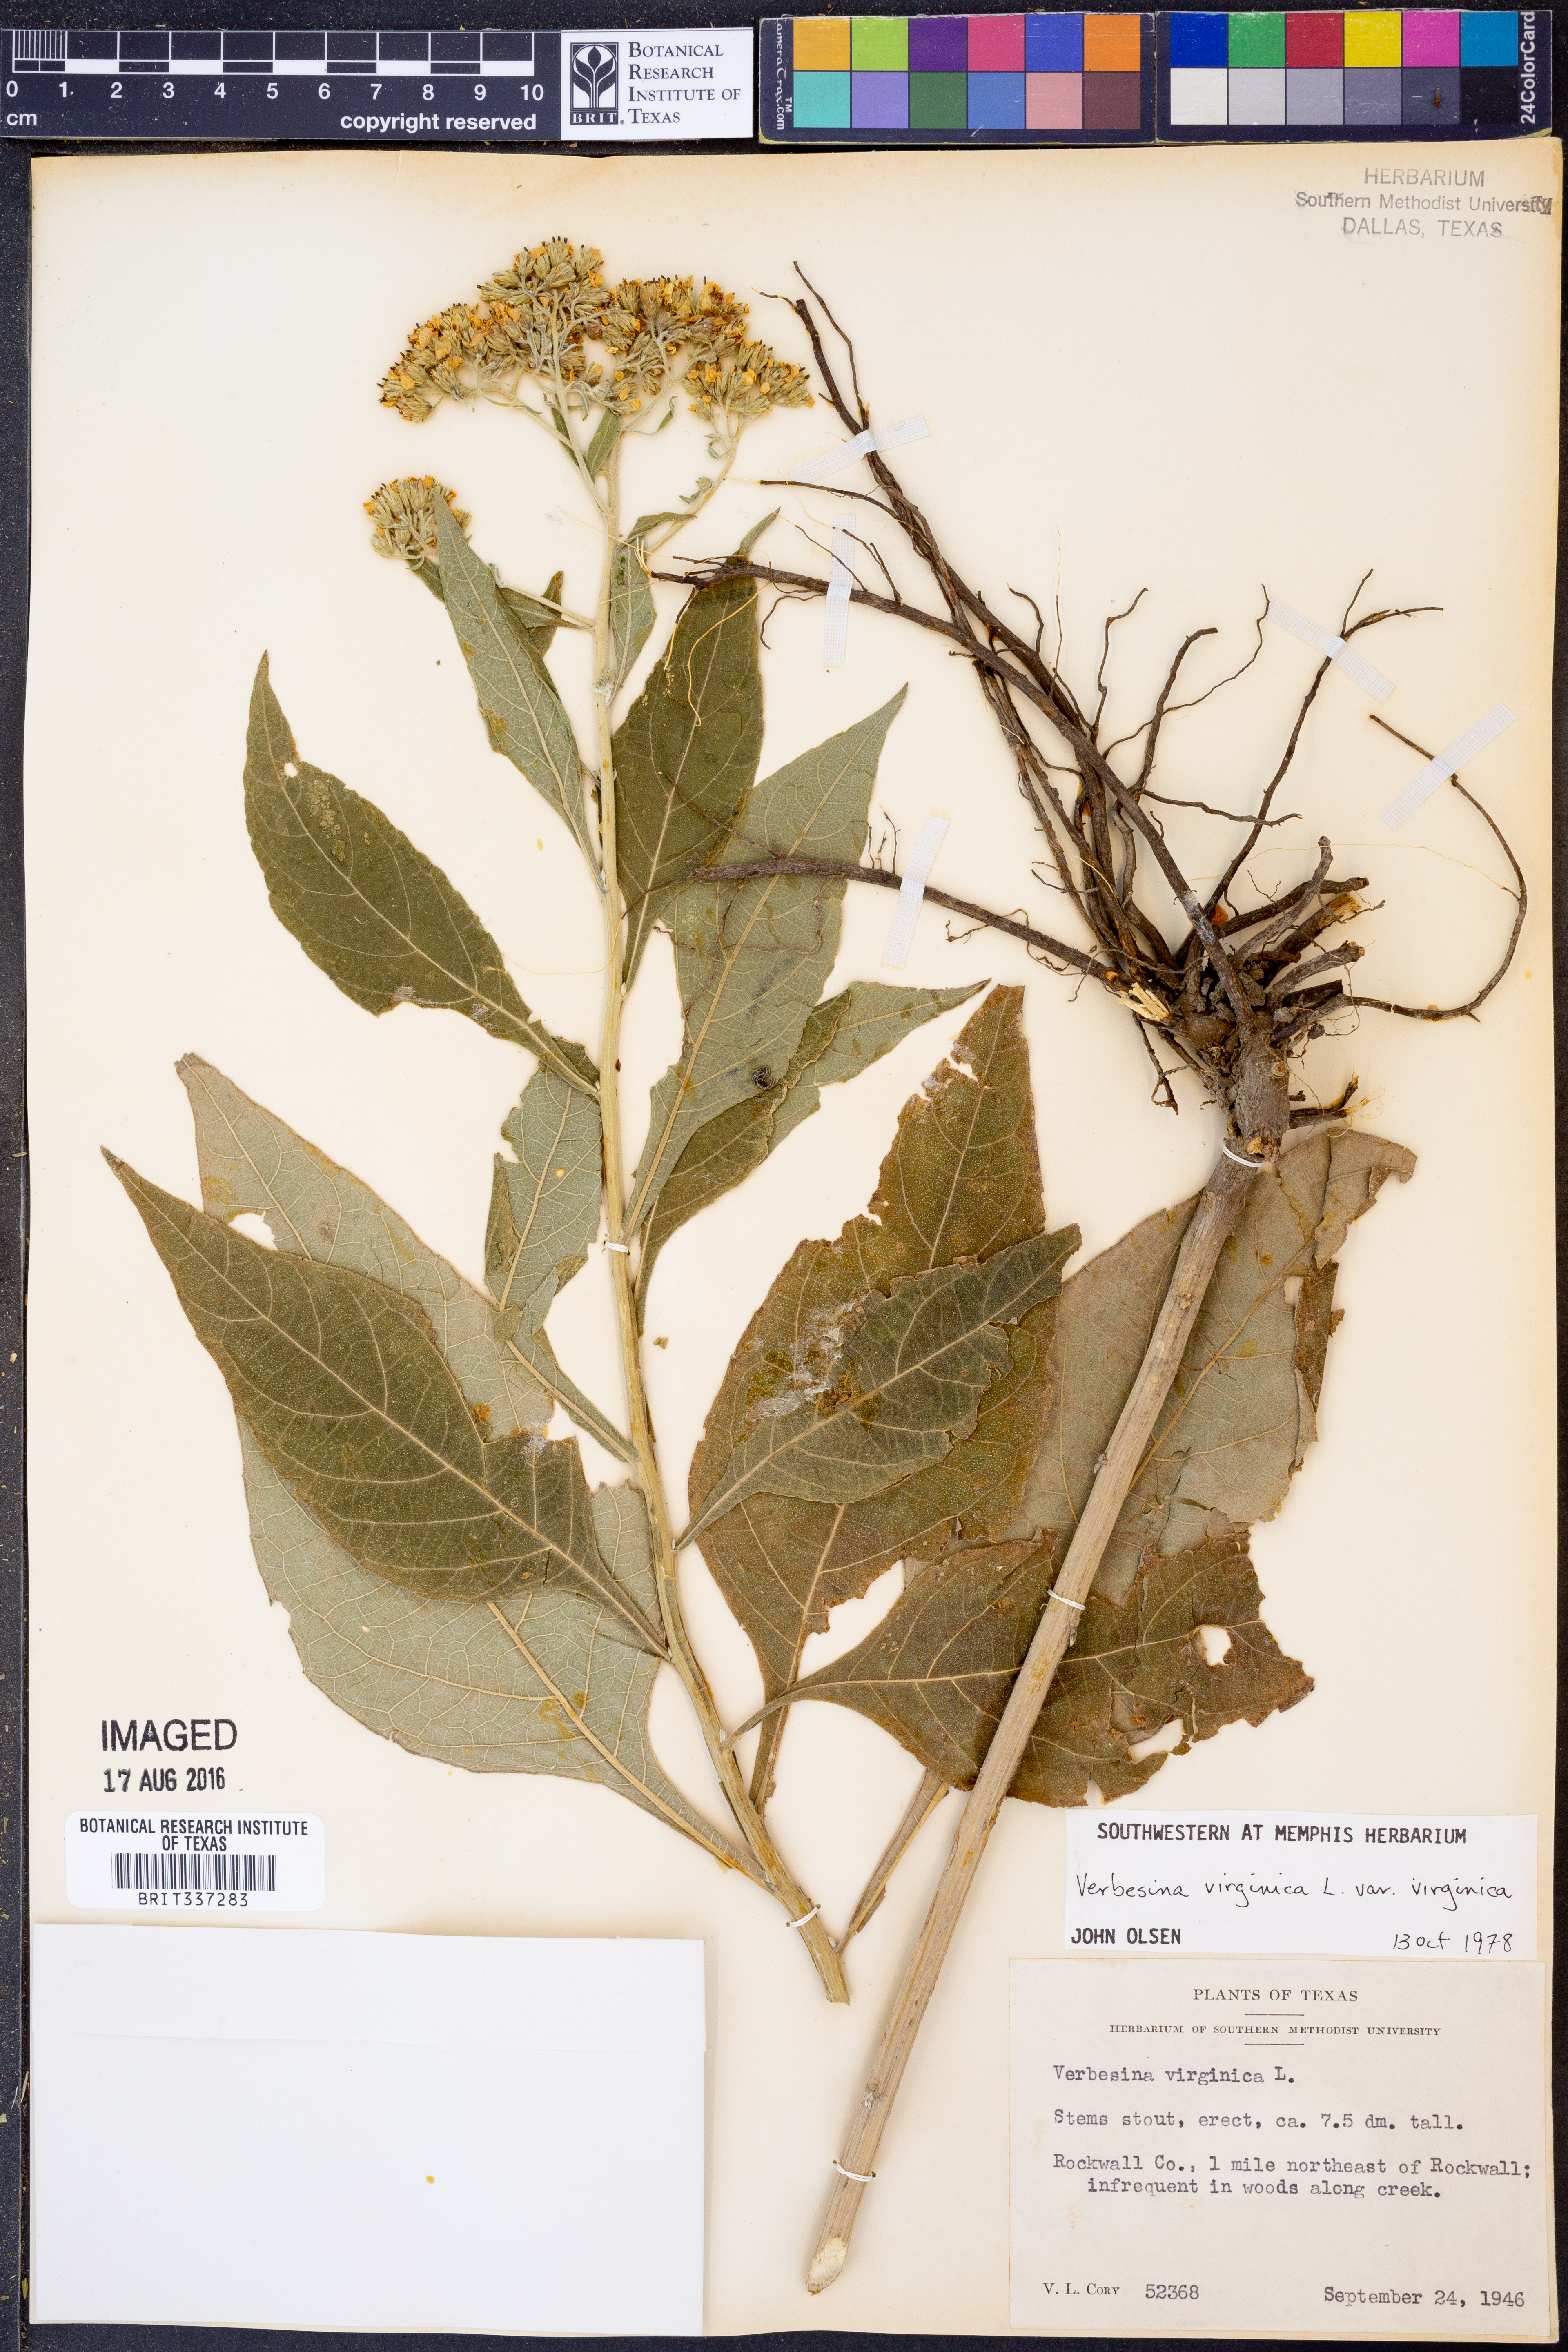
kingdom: Plantae
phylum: Tracheophyta
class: Magnoliopsida
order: Asterales
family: Asteraceae
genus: Verbesina
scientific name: Verbesina virginica
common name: Frostweed
